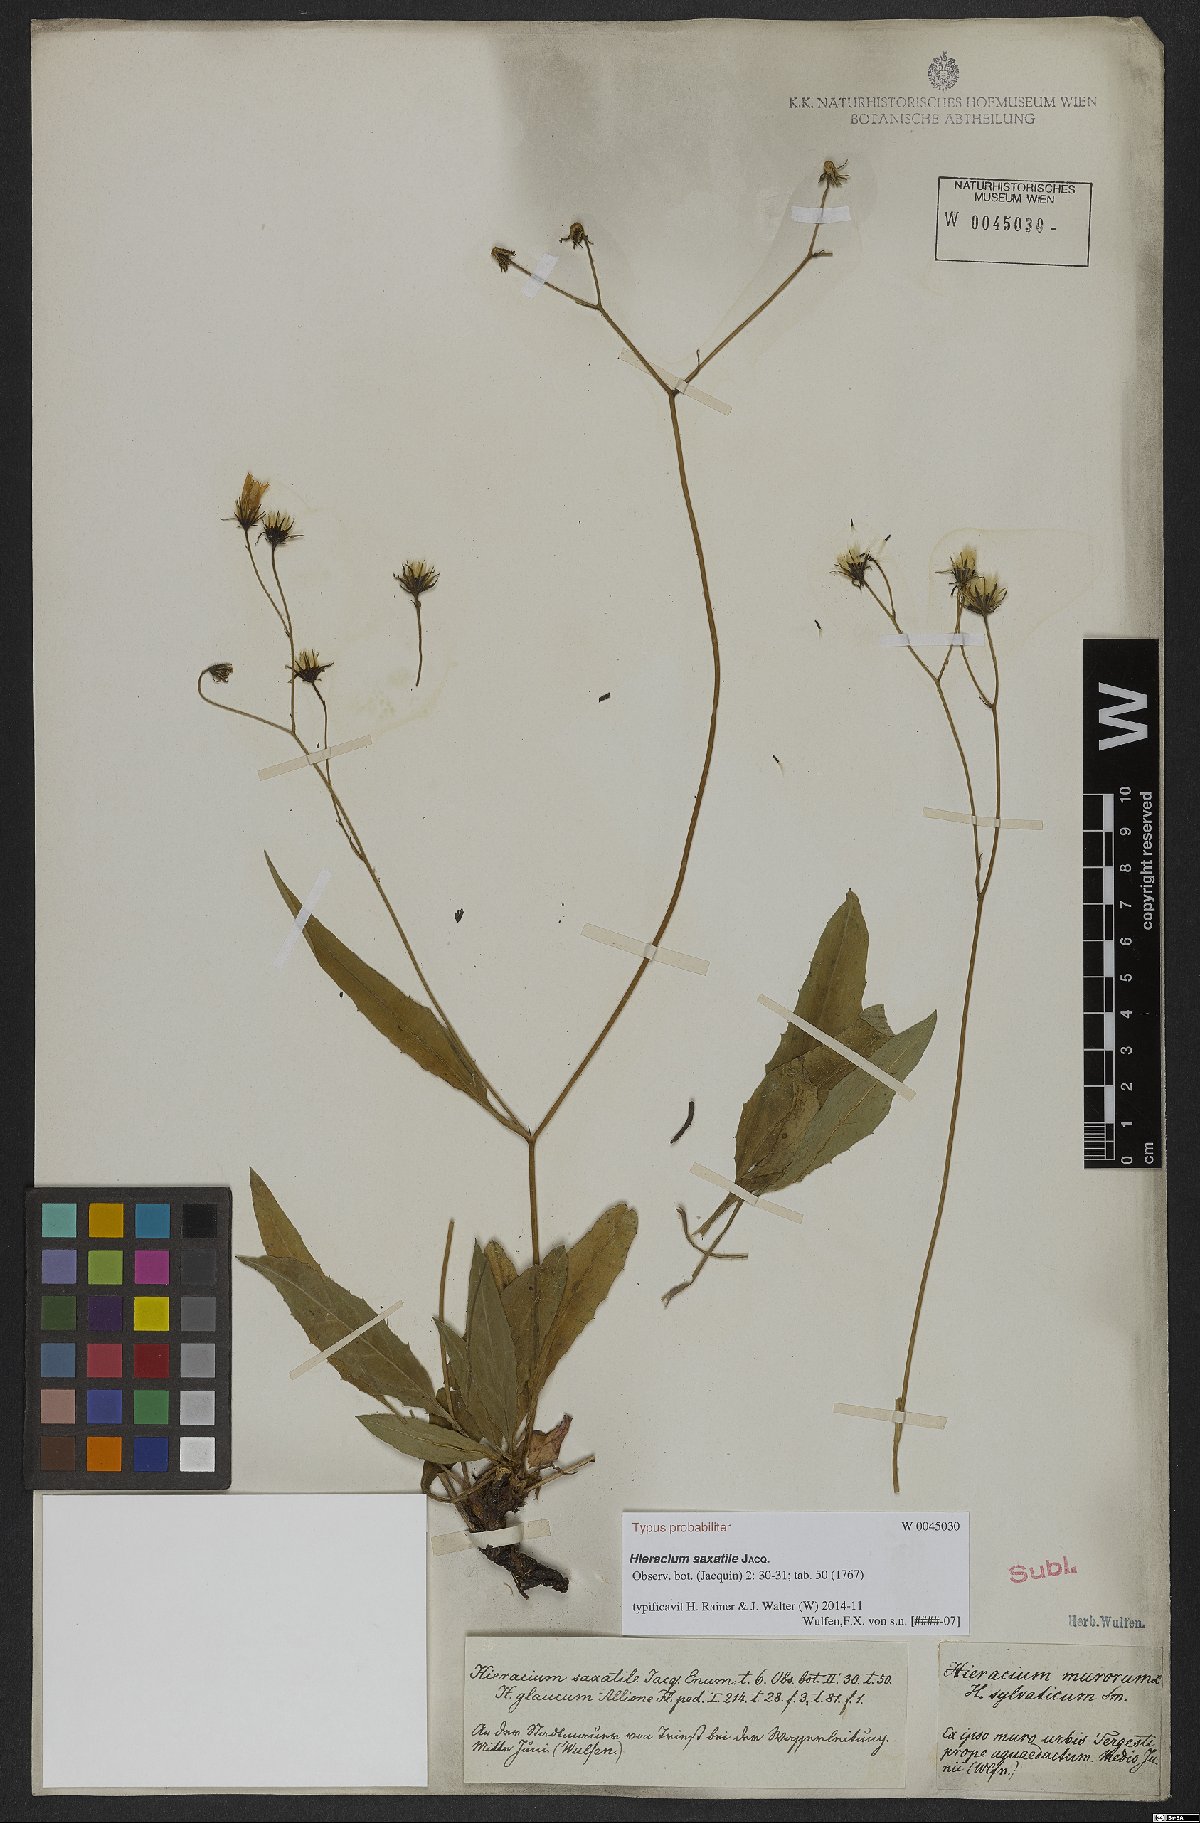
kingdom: Plantae
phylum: Tracheophyta
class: Magnoliopsida
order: Asterales
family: Asteraceae
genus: Hieracium
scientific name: Hieracium saxatile
